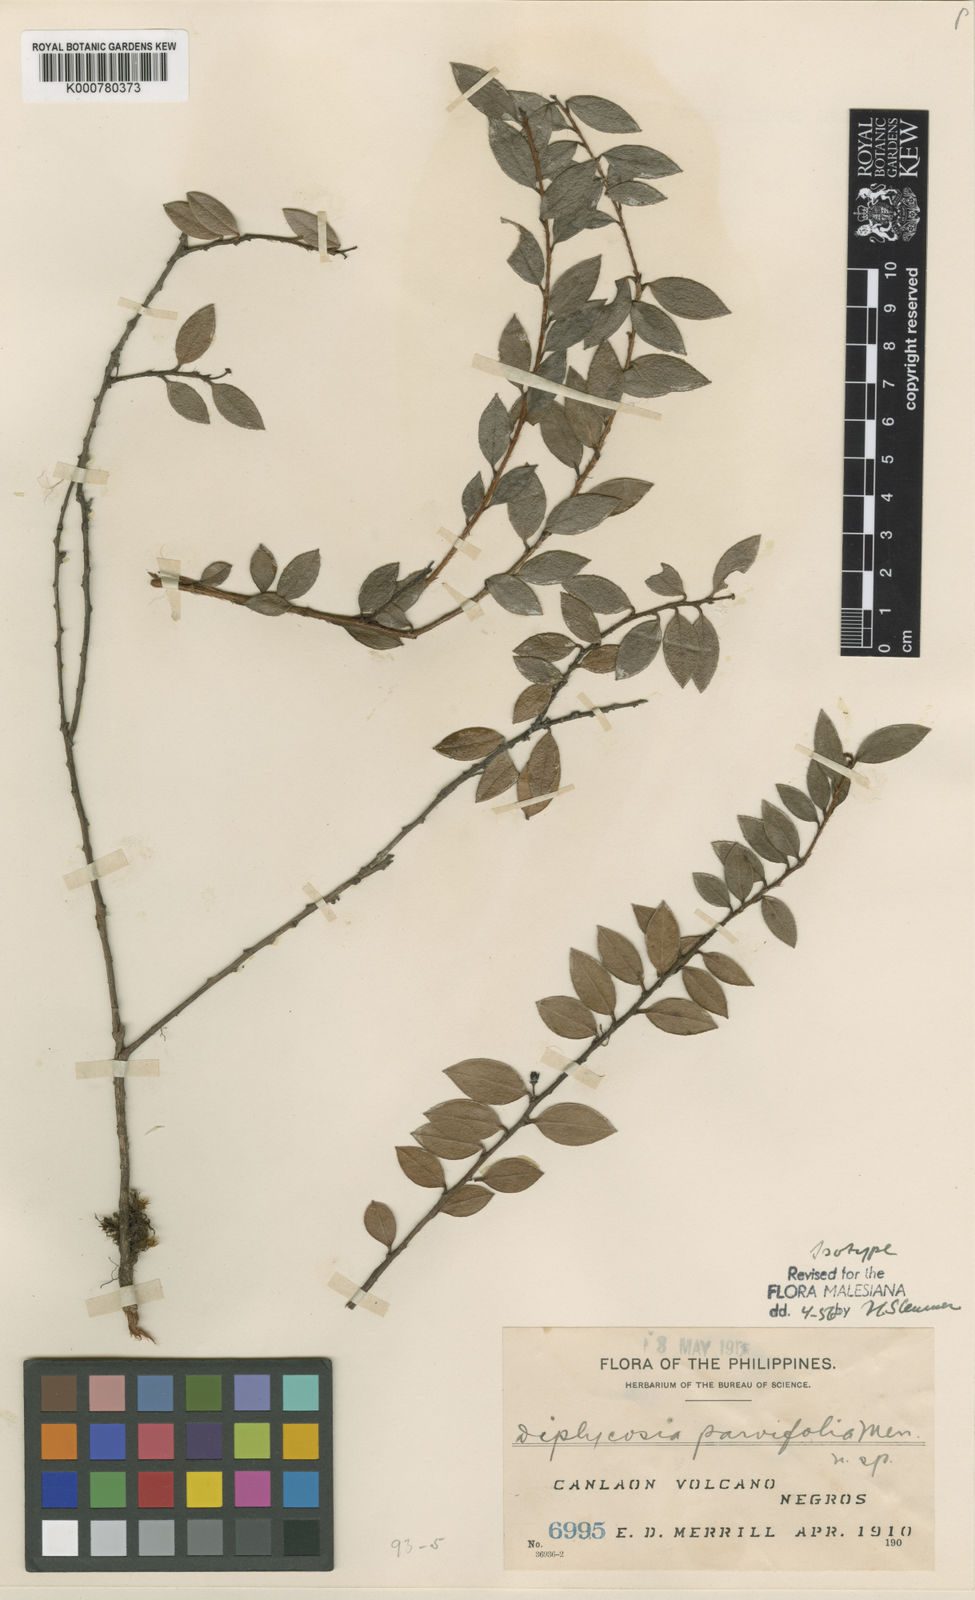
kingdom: Plantae
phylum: Tracheophyta
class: Magnoliopsida
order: Ericales
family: Ericaceae
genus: Gaultheria
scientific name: Gaultheria merrillii
